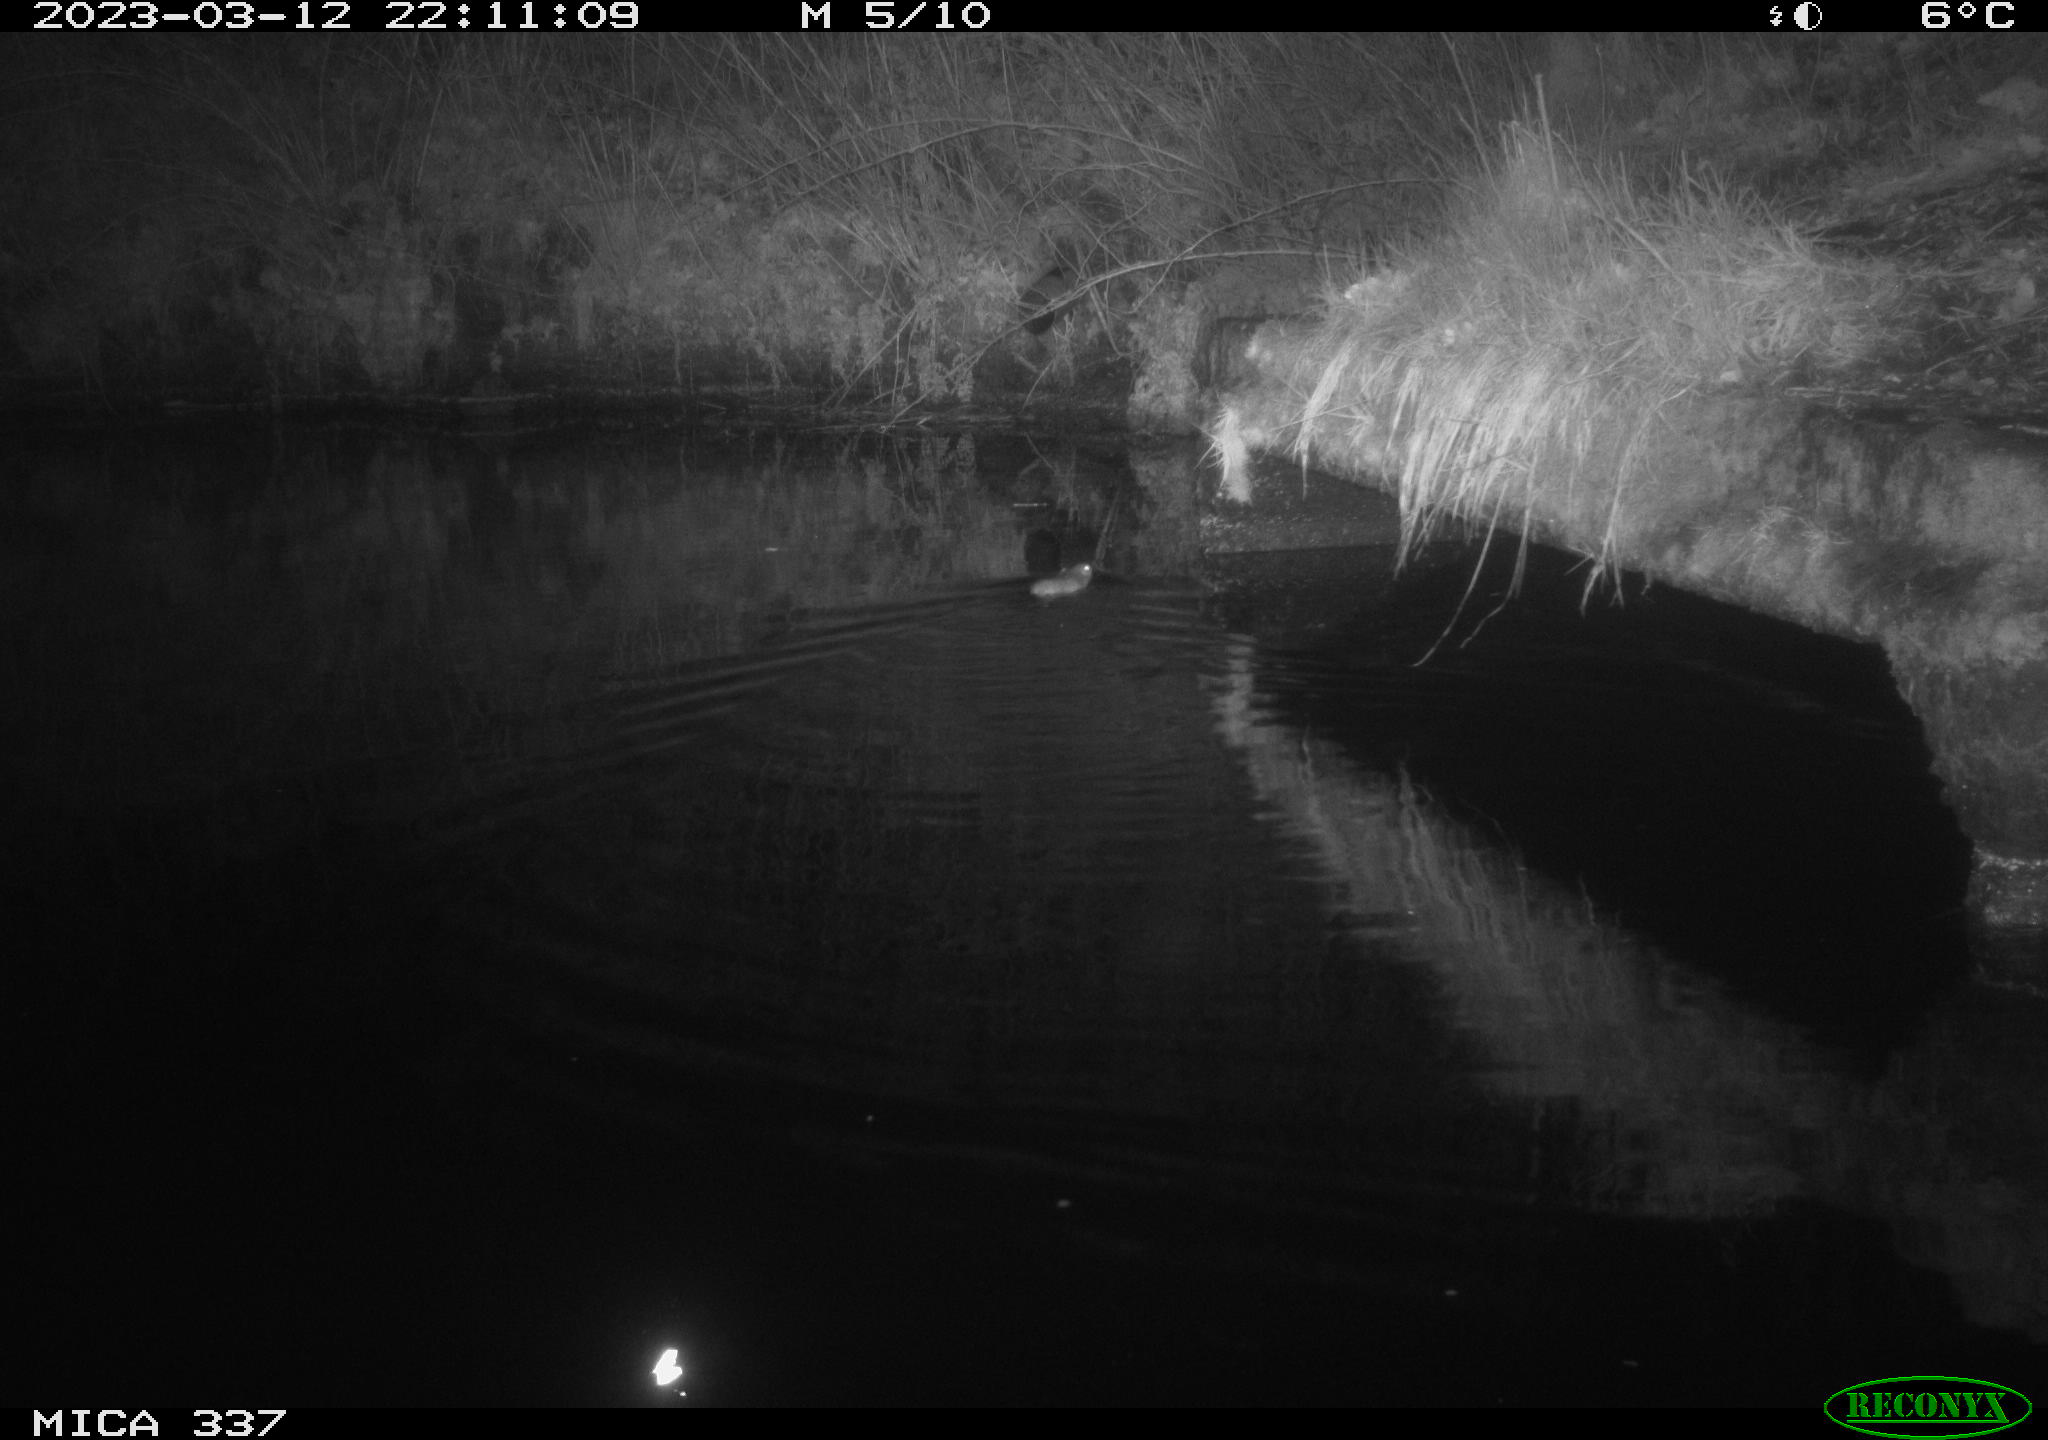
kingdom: Animalia
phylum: Chordata
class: Mammalia
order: Rodentia
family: Muridae
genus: Rattus
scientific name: Rattus norvegicus
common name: Brown rat
